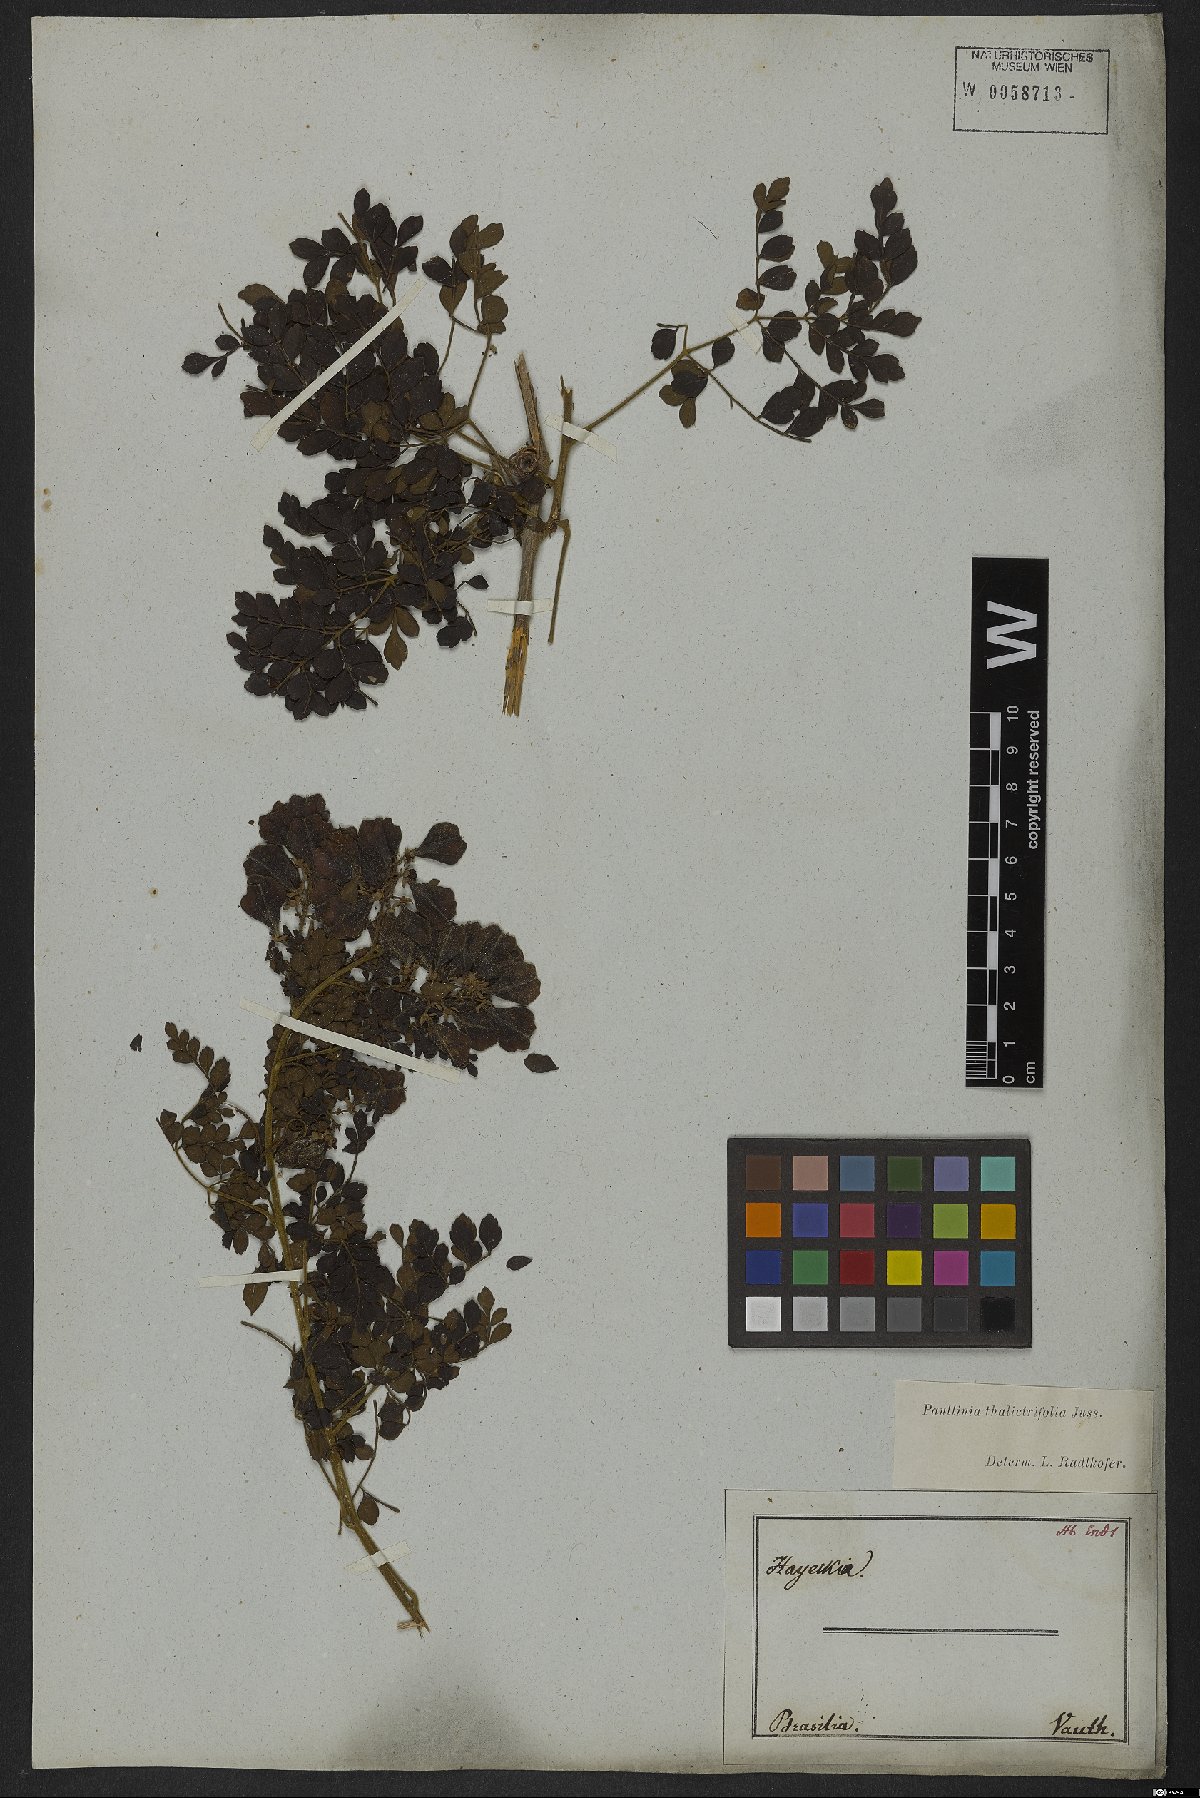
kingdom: Plantae
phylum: Tracheophyta
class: Magnoliopsida
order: Sapindales
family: Sapindaceae
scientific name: Sapindaceae
